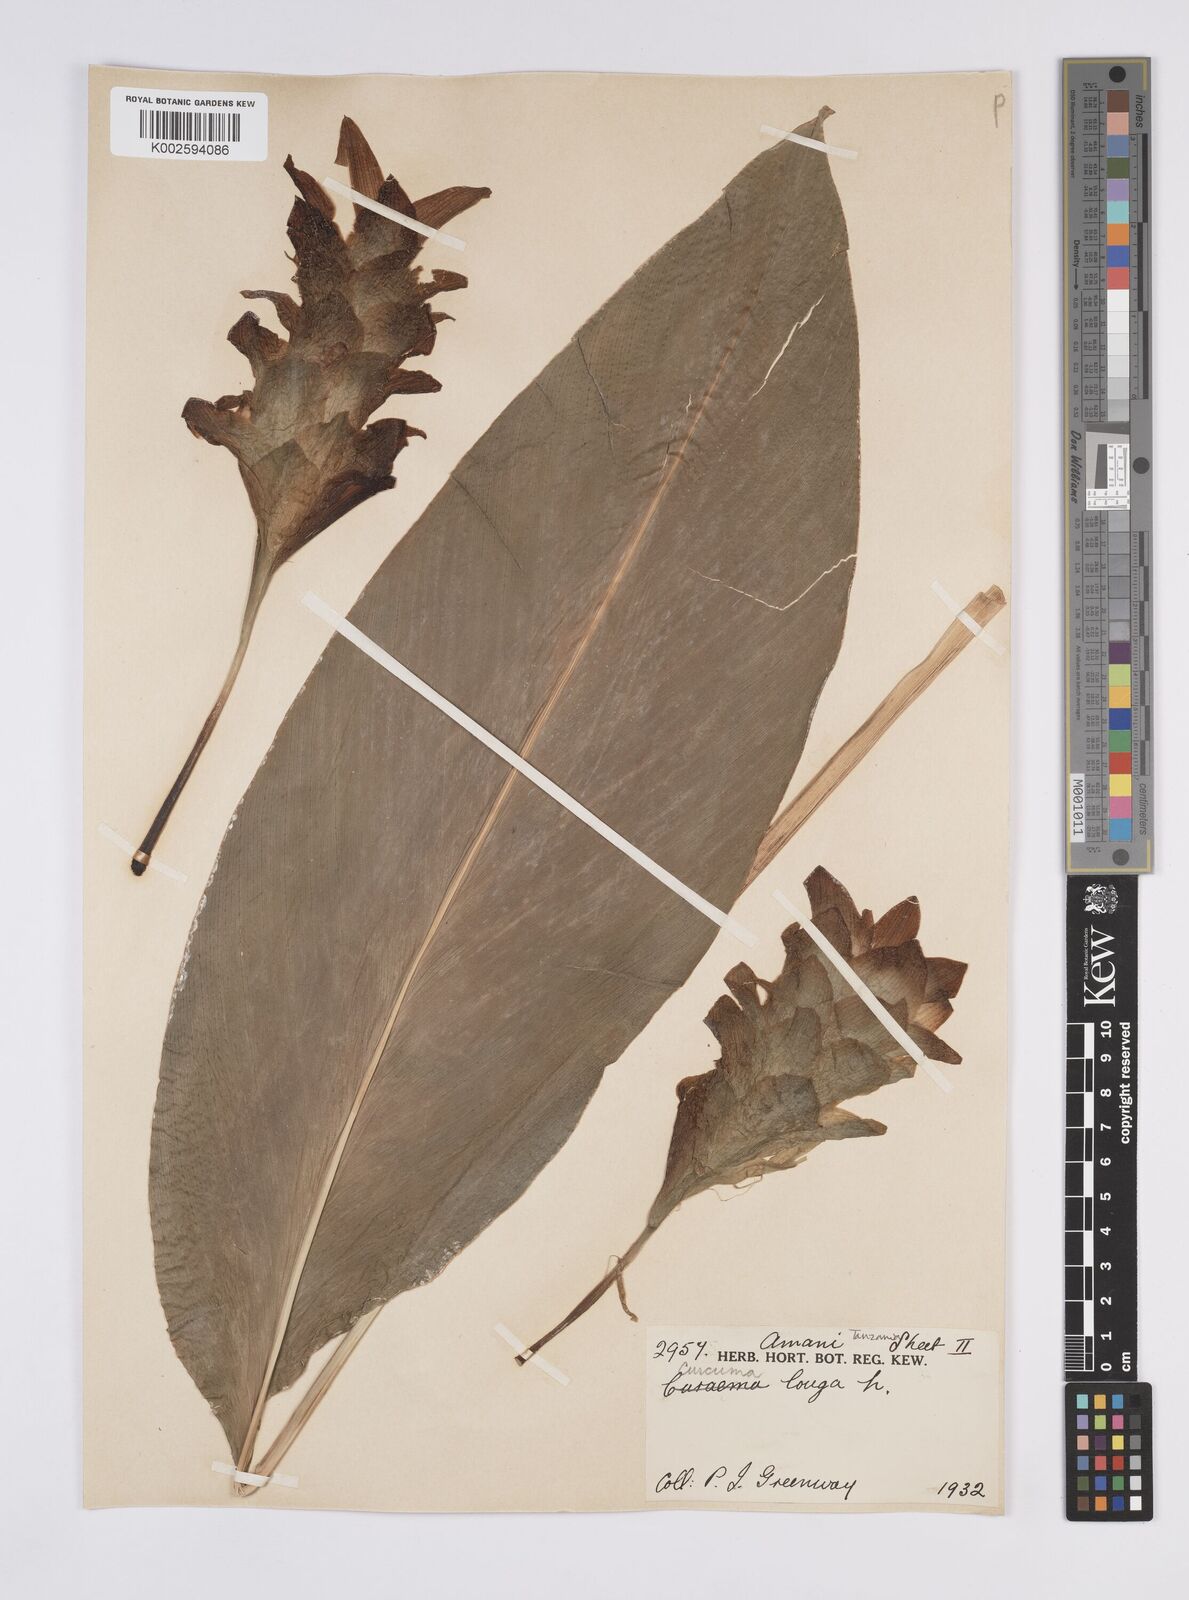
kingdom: Plantae
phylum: Tracheophyta
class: Liliopsida
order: Zingiberales
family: Zingiberaceae
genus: Curcuma
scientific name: Curcuma longa
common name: Turmeric
